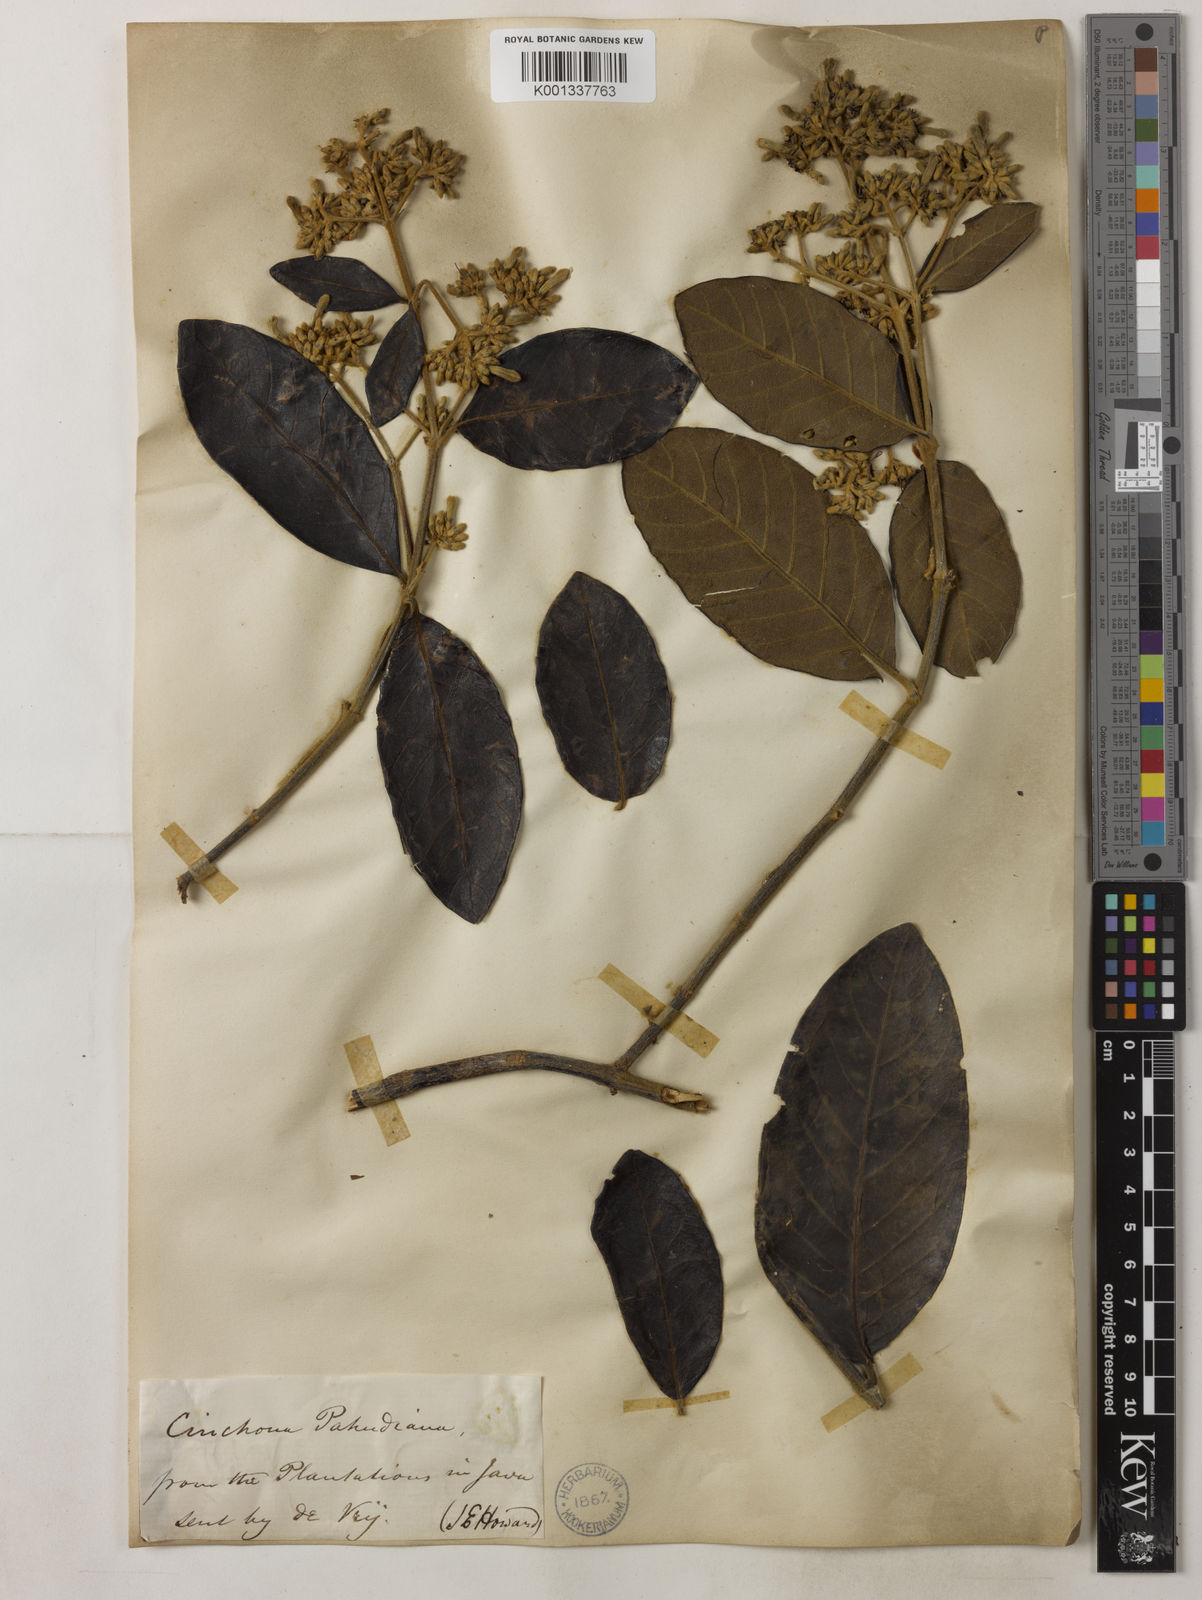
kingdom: Plantae
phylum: Tracheophyta
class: Magnoliopsida
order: Gentianales
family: Rubiaceae
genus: Cinchona
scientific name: Cinchona calisaya
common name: Ledgerbark
